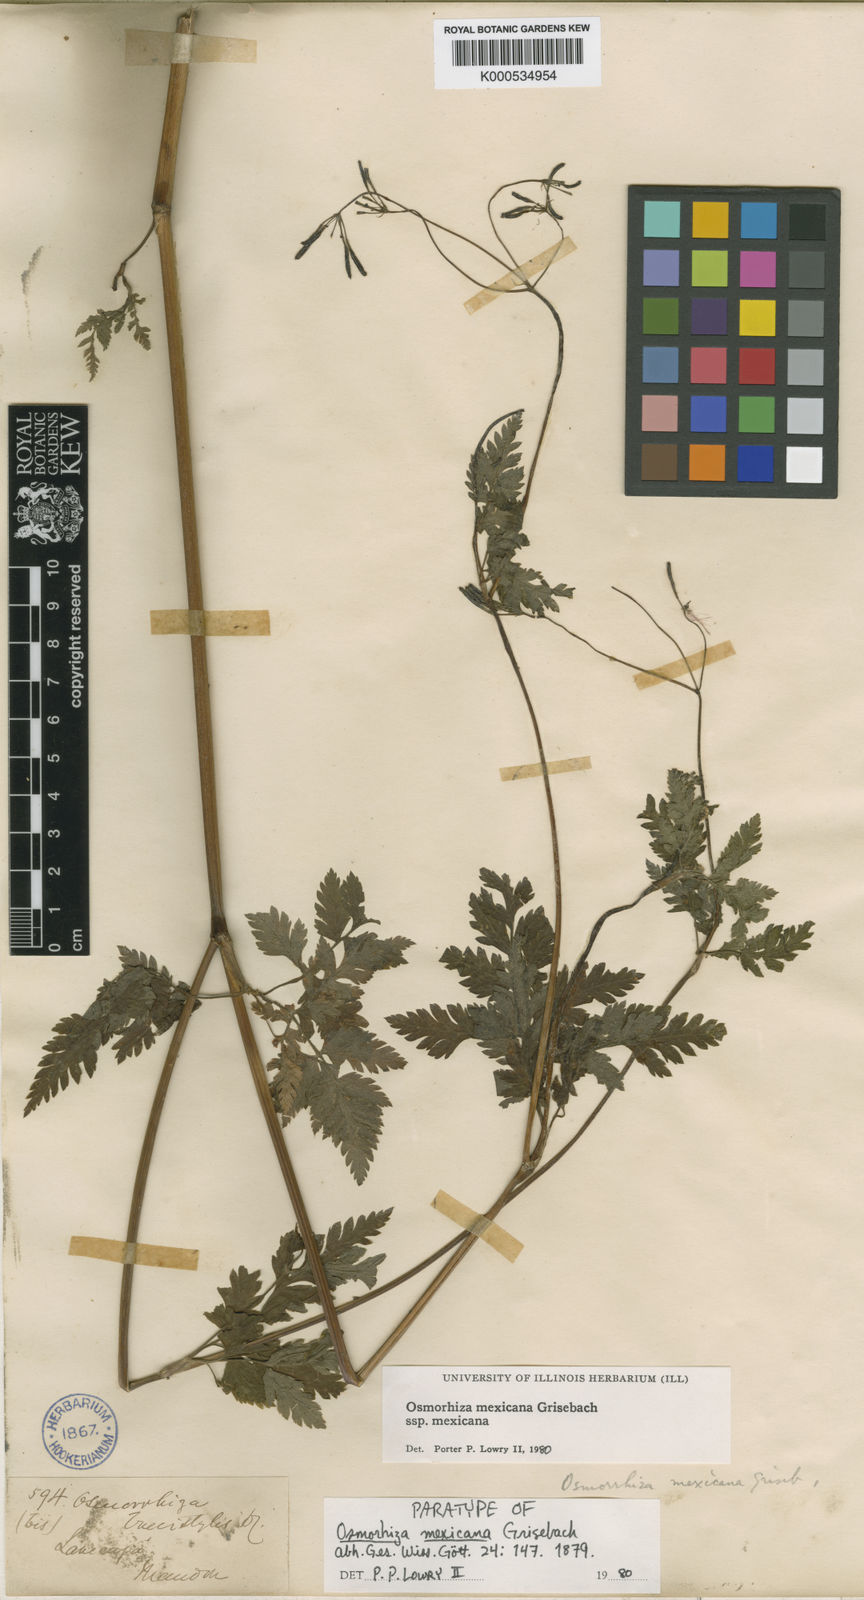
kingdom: Plantae
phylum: Tracheophyta
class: Magnoliopsida
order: Apiales
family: Apiaceae
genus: Osmorhiza
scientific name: Osmorhiza mexicana
